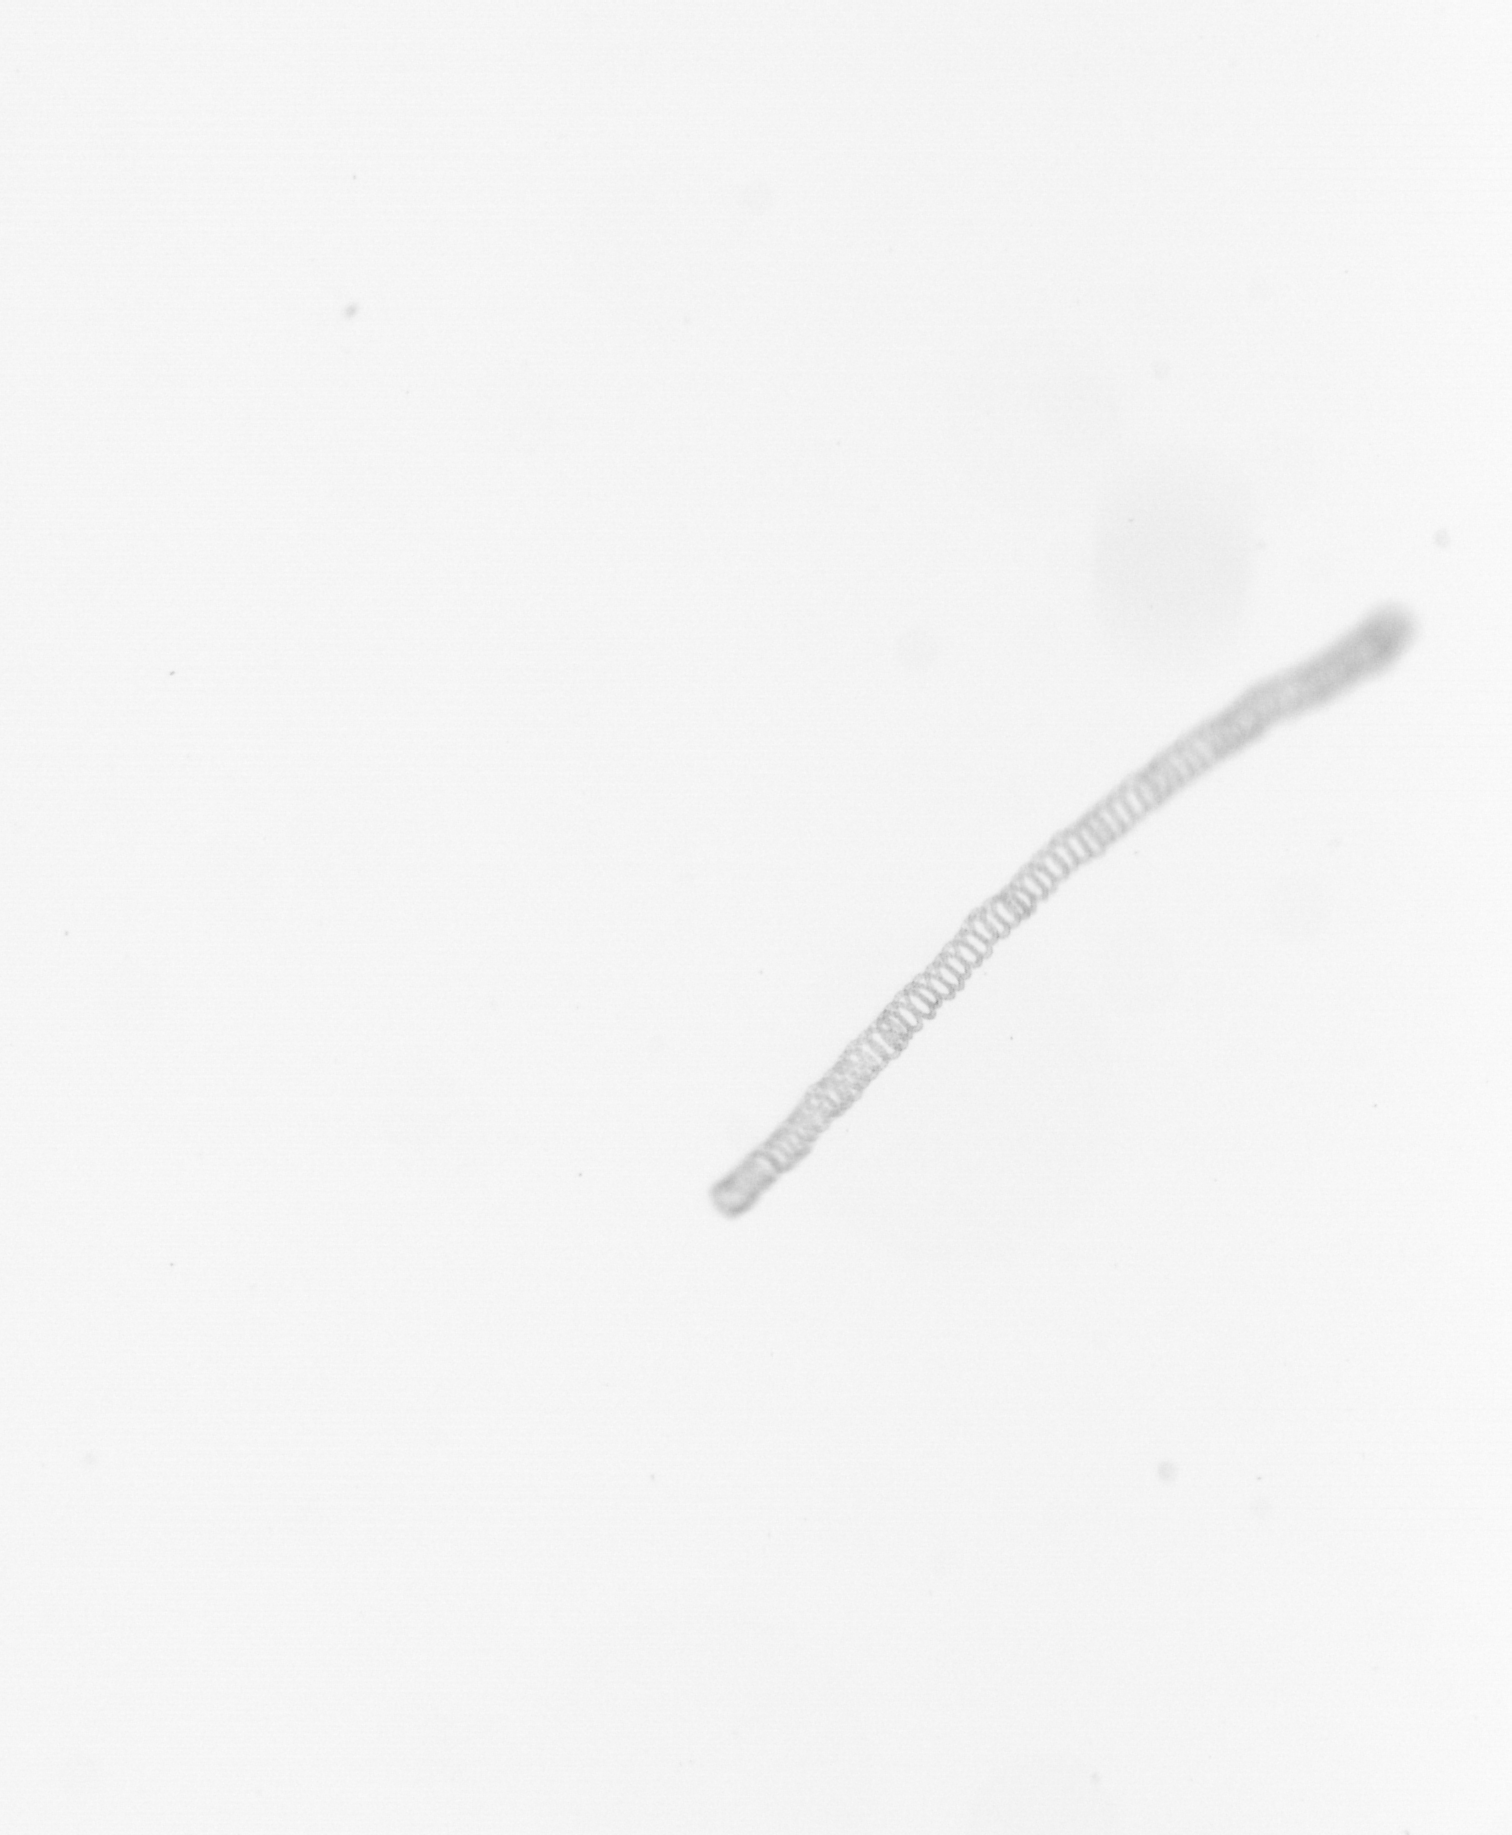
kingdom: Chromista
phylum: Ochrophyta
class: Bacillariophyceae
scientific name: Bacillariophyceae
